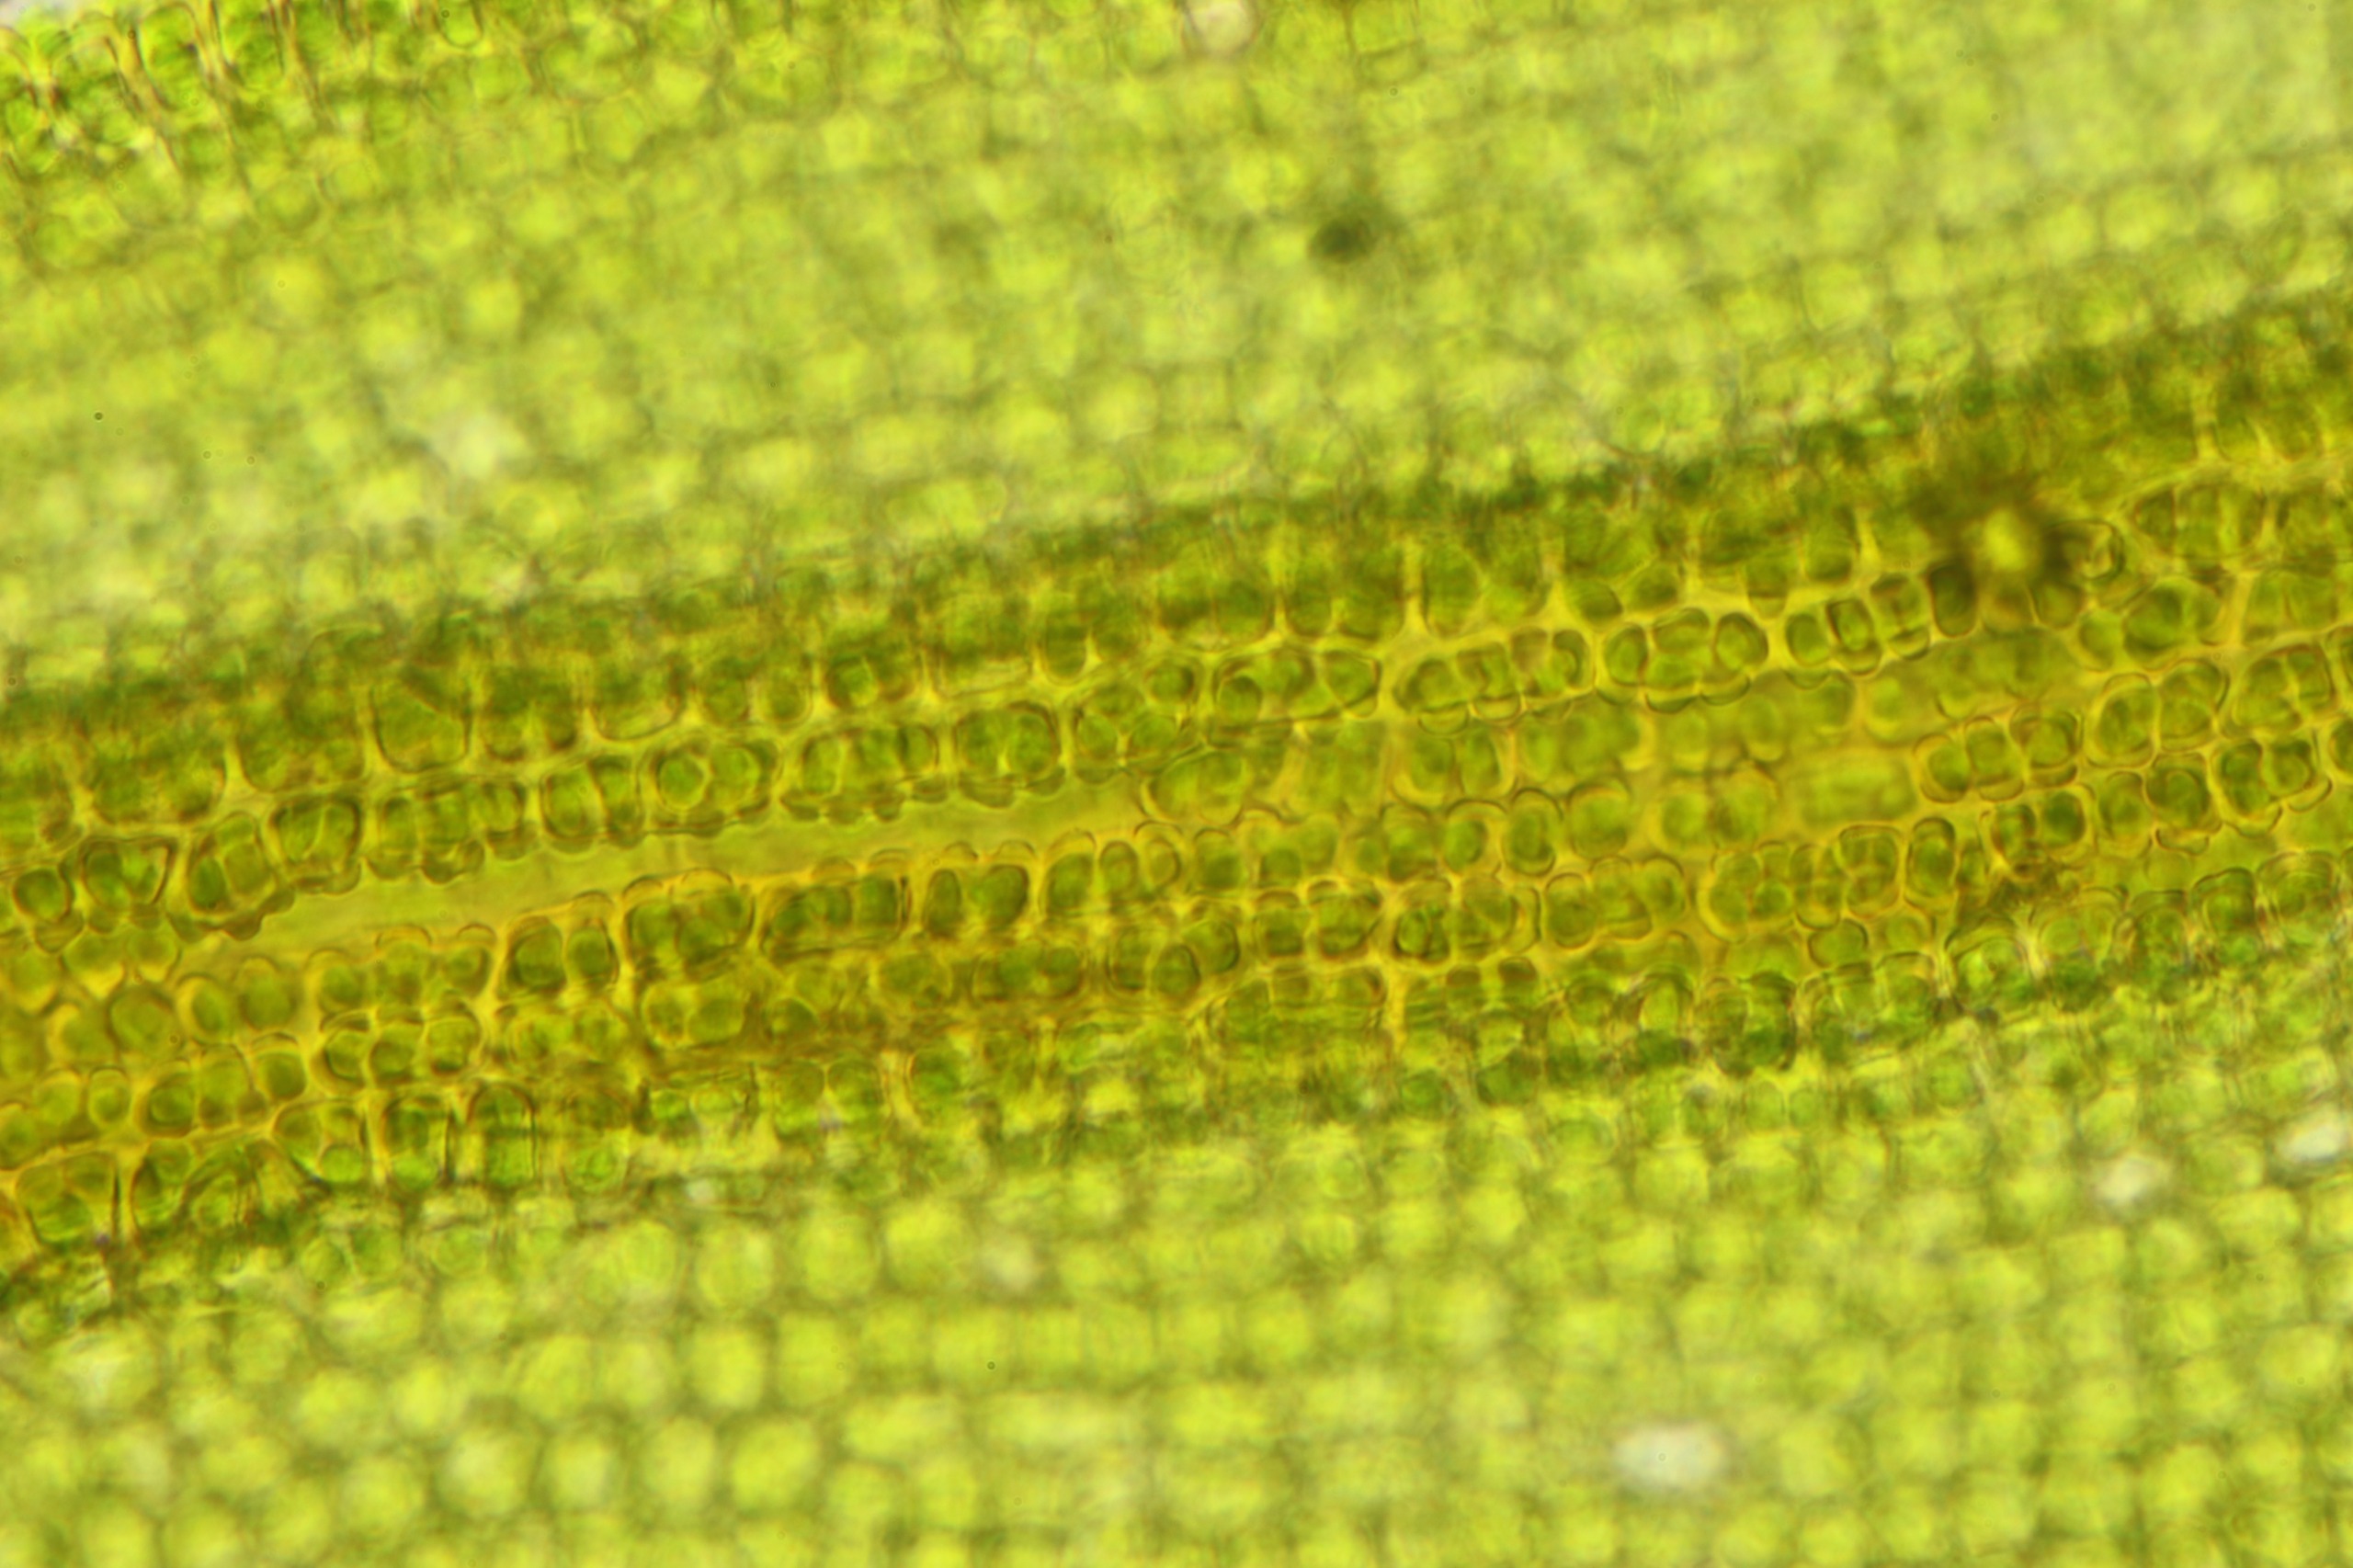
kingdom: Plantae
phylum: Bryophyta
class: Bryopsida
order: Pottiales
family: Pottiaceae
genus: Vinealobryum
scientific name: Vinealobryum insulanum
